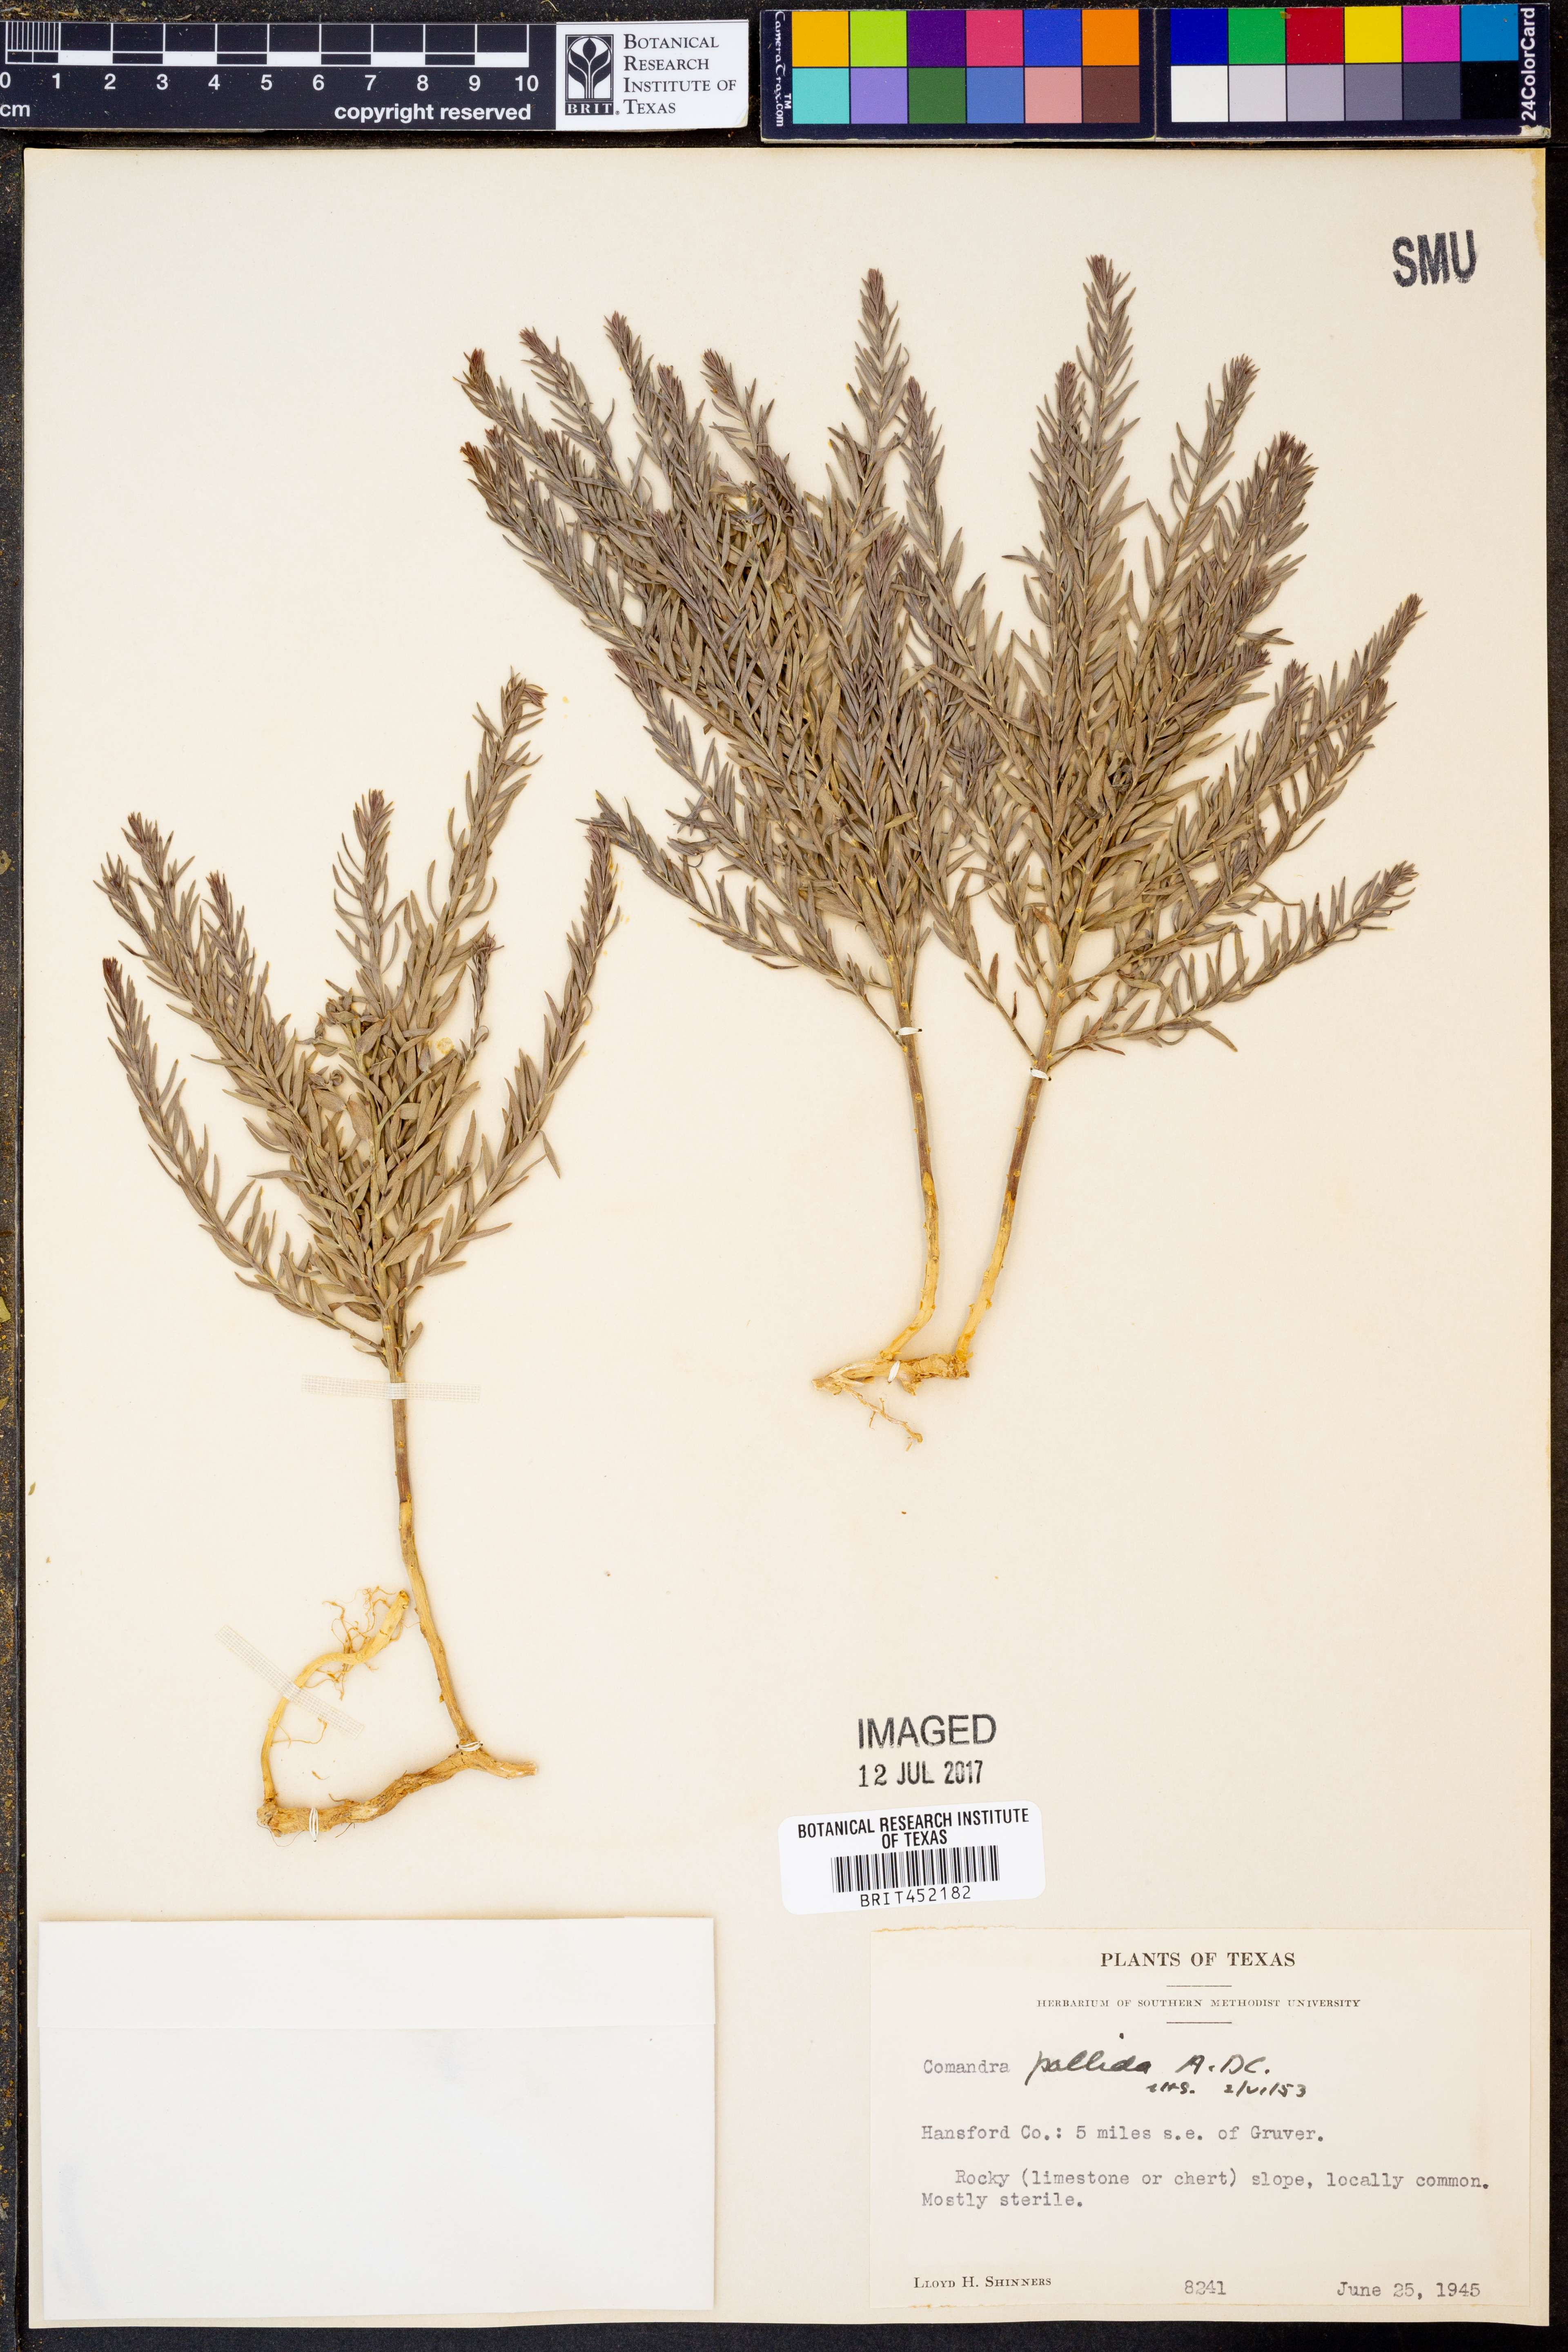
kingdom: Plantae
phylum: Tracheophyta
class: Magnoliopsida
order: Santalales
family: Comandraceae
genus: Comandra
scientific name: Comandra umbellata
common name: Bastard toadflax
